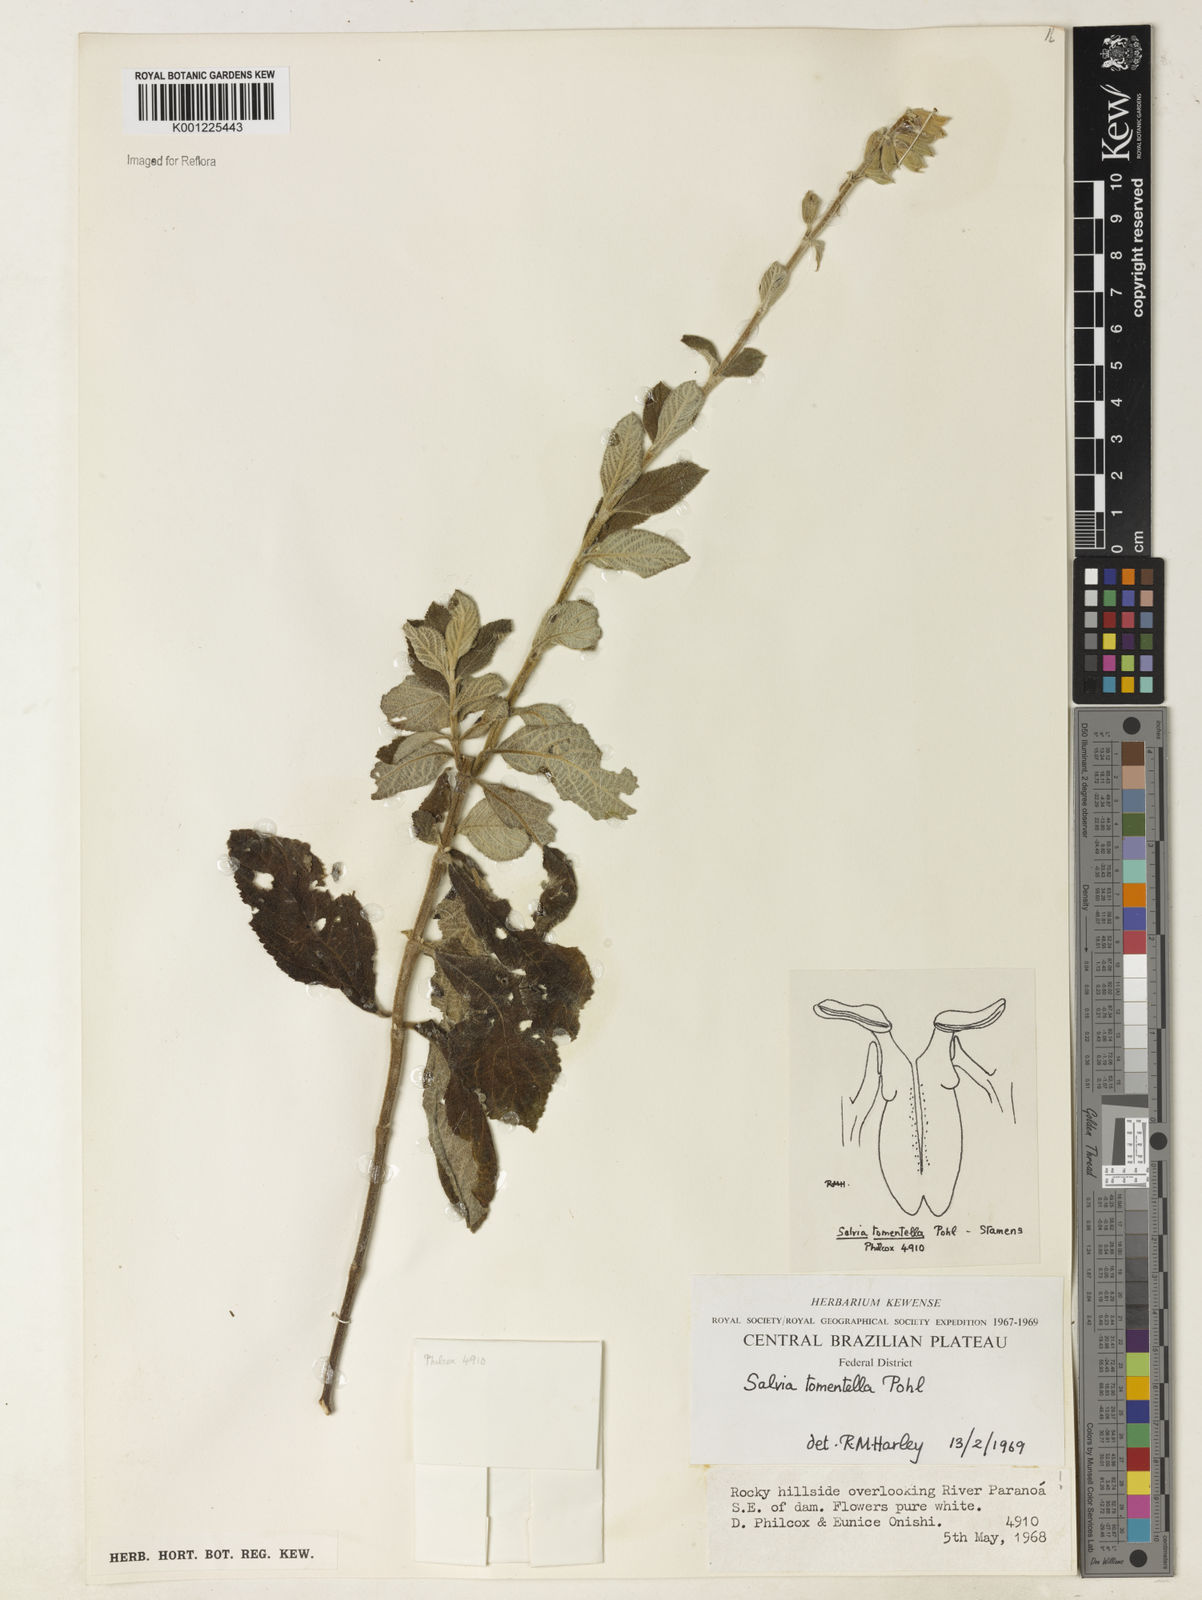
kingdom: Plantae
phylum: Tracheophyta
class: Magnoliopsida
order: Lamiales
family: Lamiaceae
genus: Salvia
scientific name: Salvia tomentella
